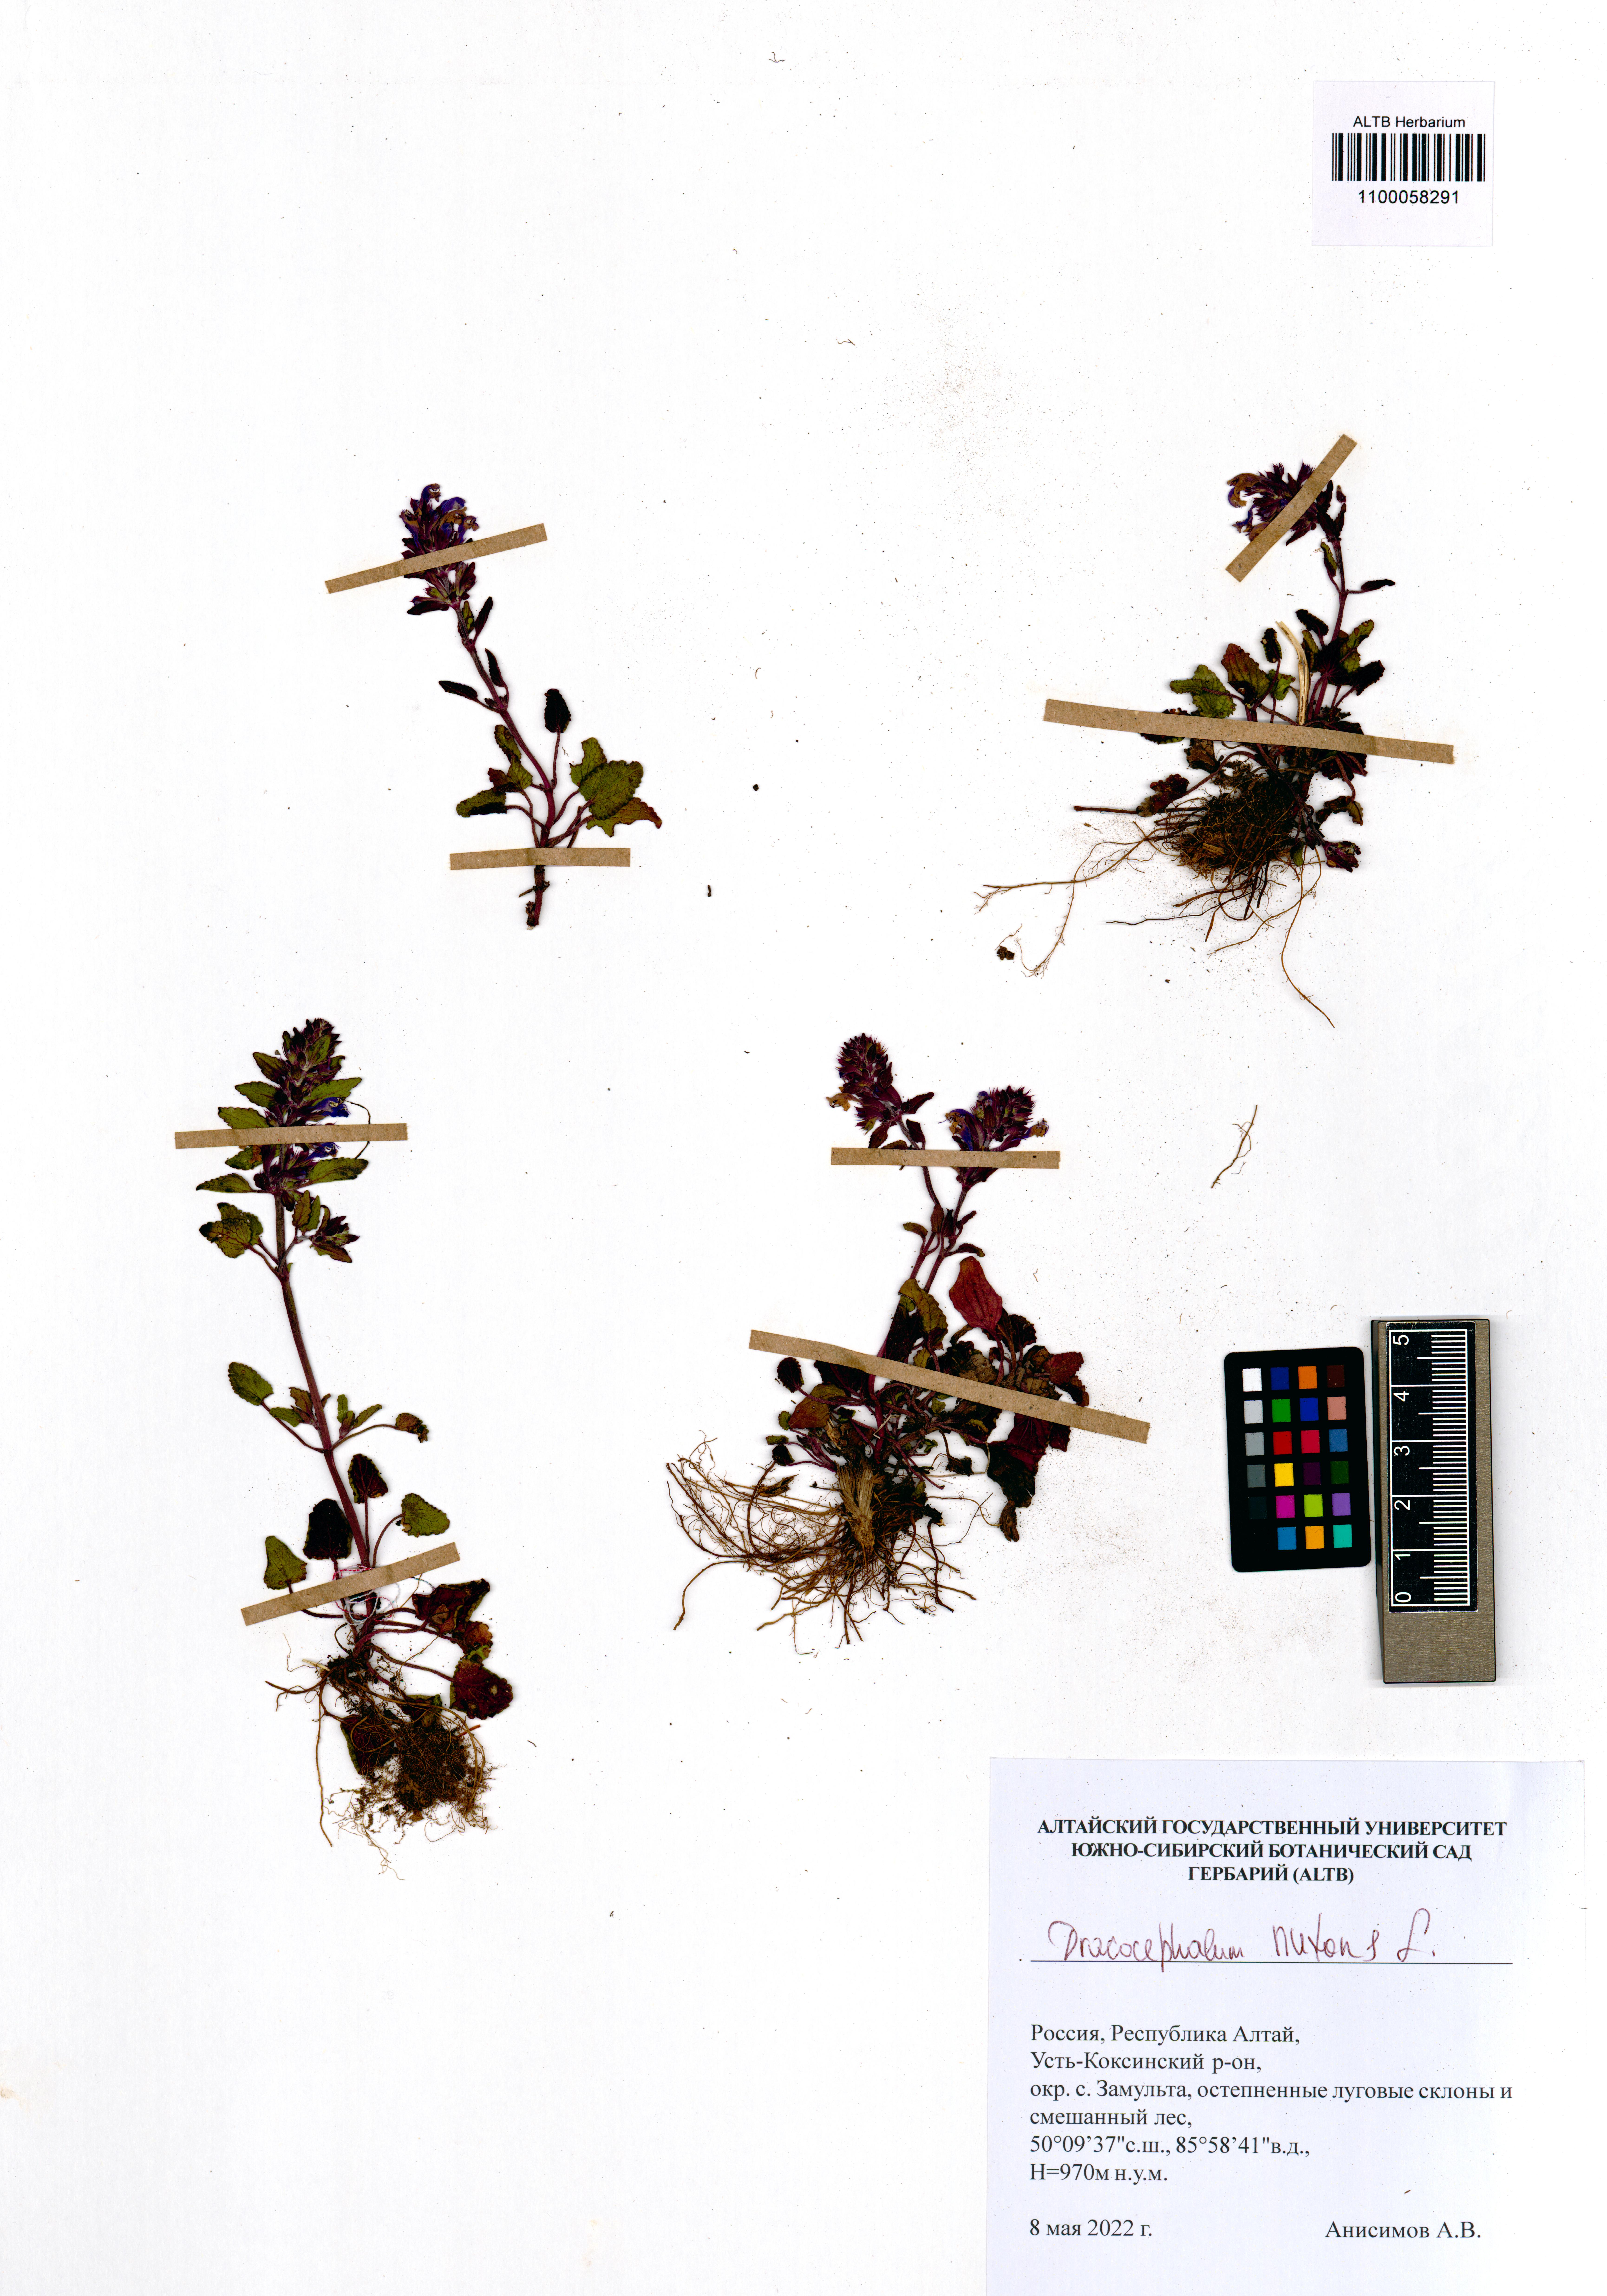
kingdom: Plantae
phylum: Tracheophyta
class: Magnoliopsida
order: Lamiales
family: Lamiaceae
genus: Dracocephalum
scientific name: Dracocephalum nutans
